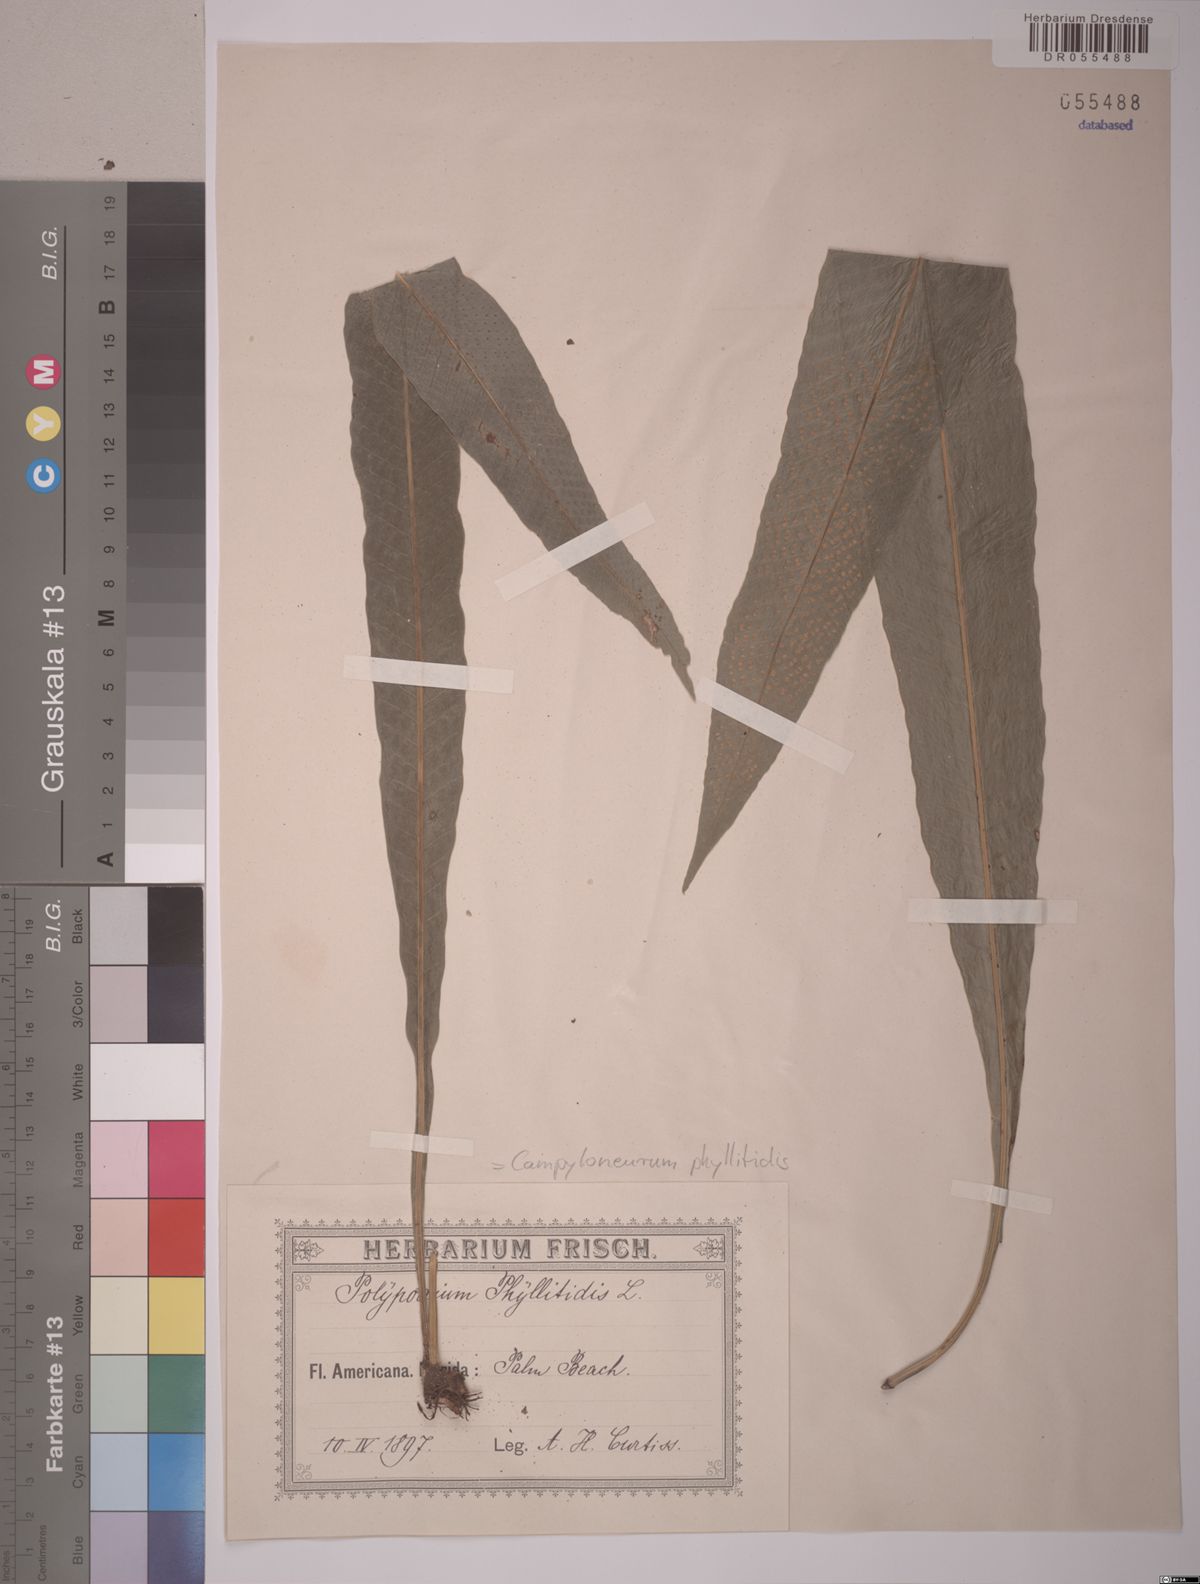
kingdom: Plantae
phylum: Tracheophyta
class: Polypodiopsida
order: Polypodiales
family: Polypodiaceae
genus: Campyloneurum
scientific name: Campyloneurum phyllitidis
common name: Cow-tongue fern
